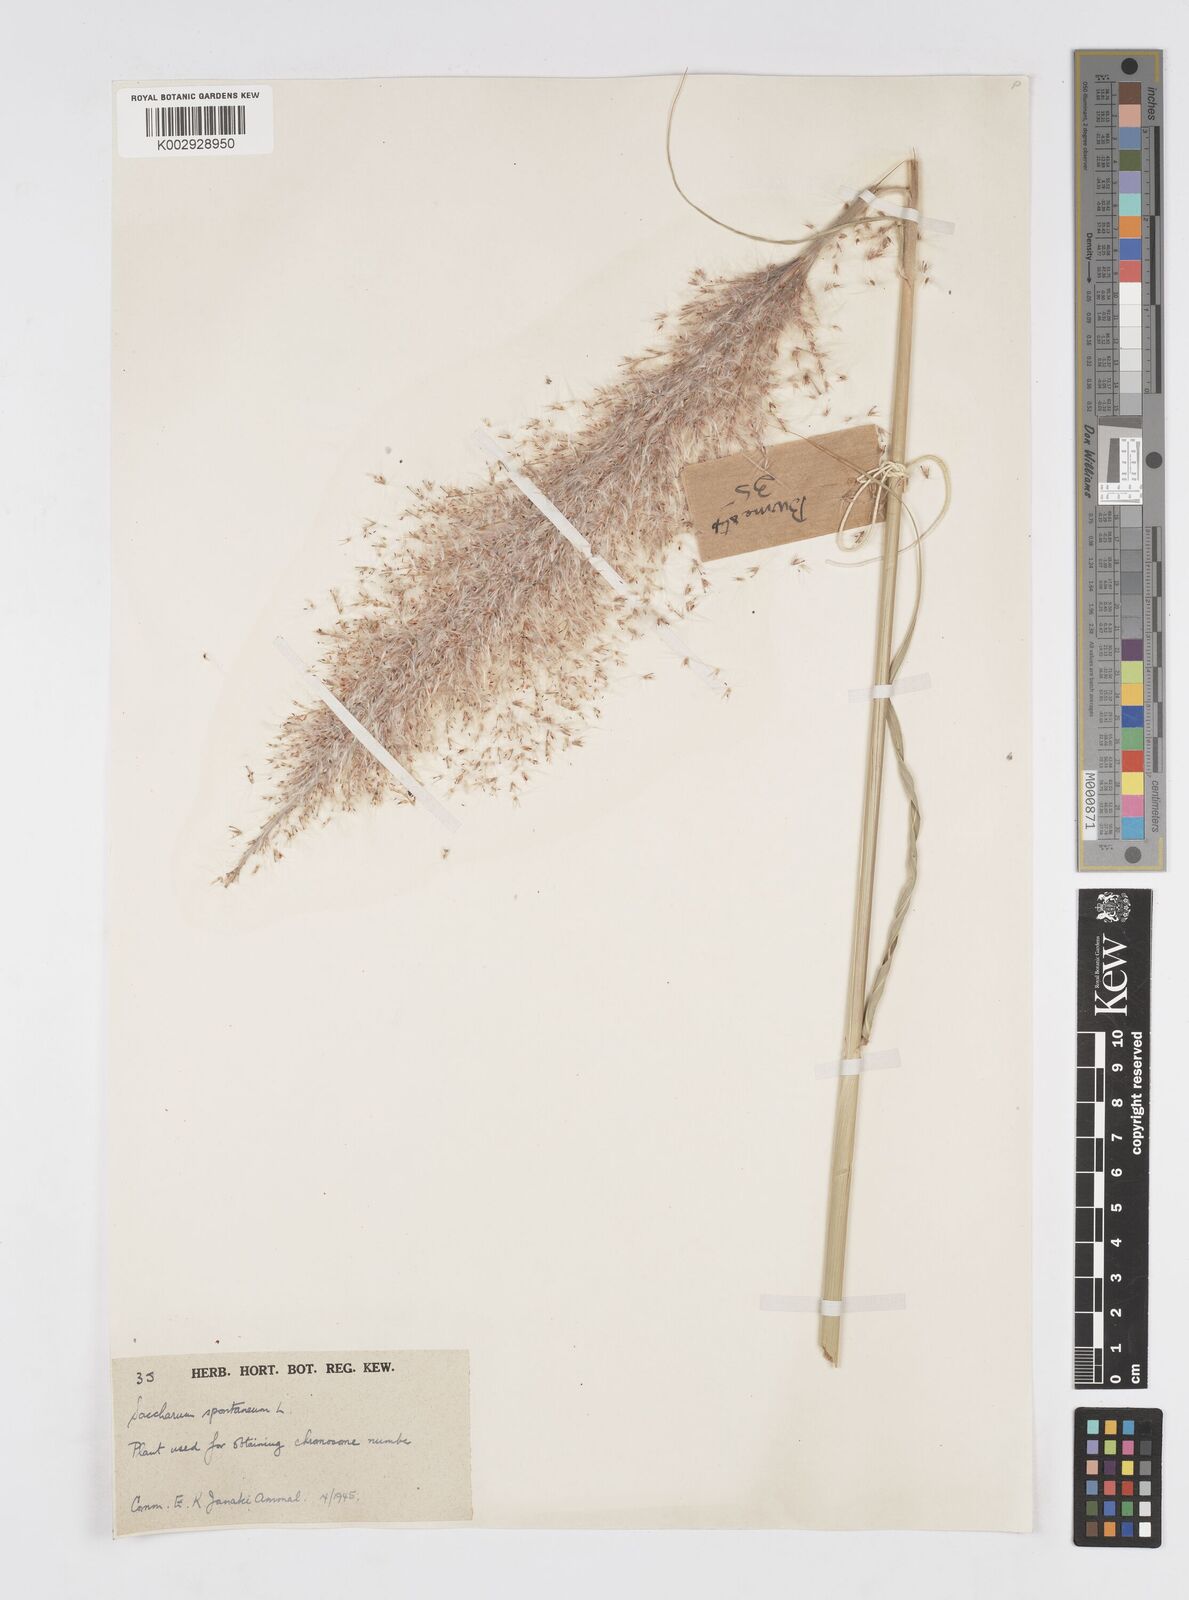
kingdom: Plantae
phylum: Tracheophyta
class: Liliopsida
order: Poales
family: Poaceae
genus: Saccharum
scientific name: Saccharum spontaneum
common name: Wild sugarcane
